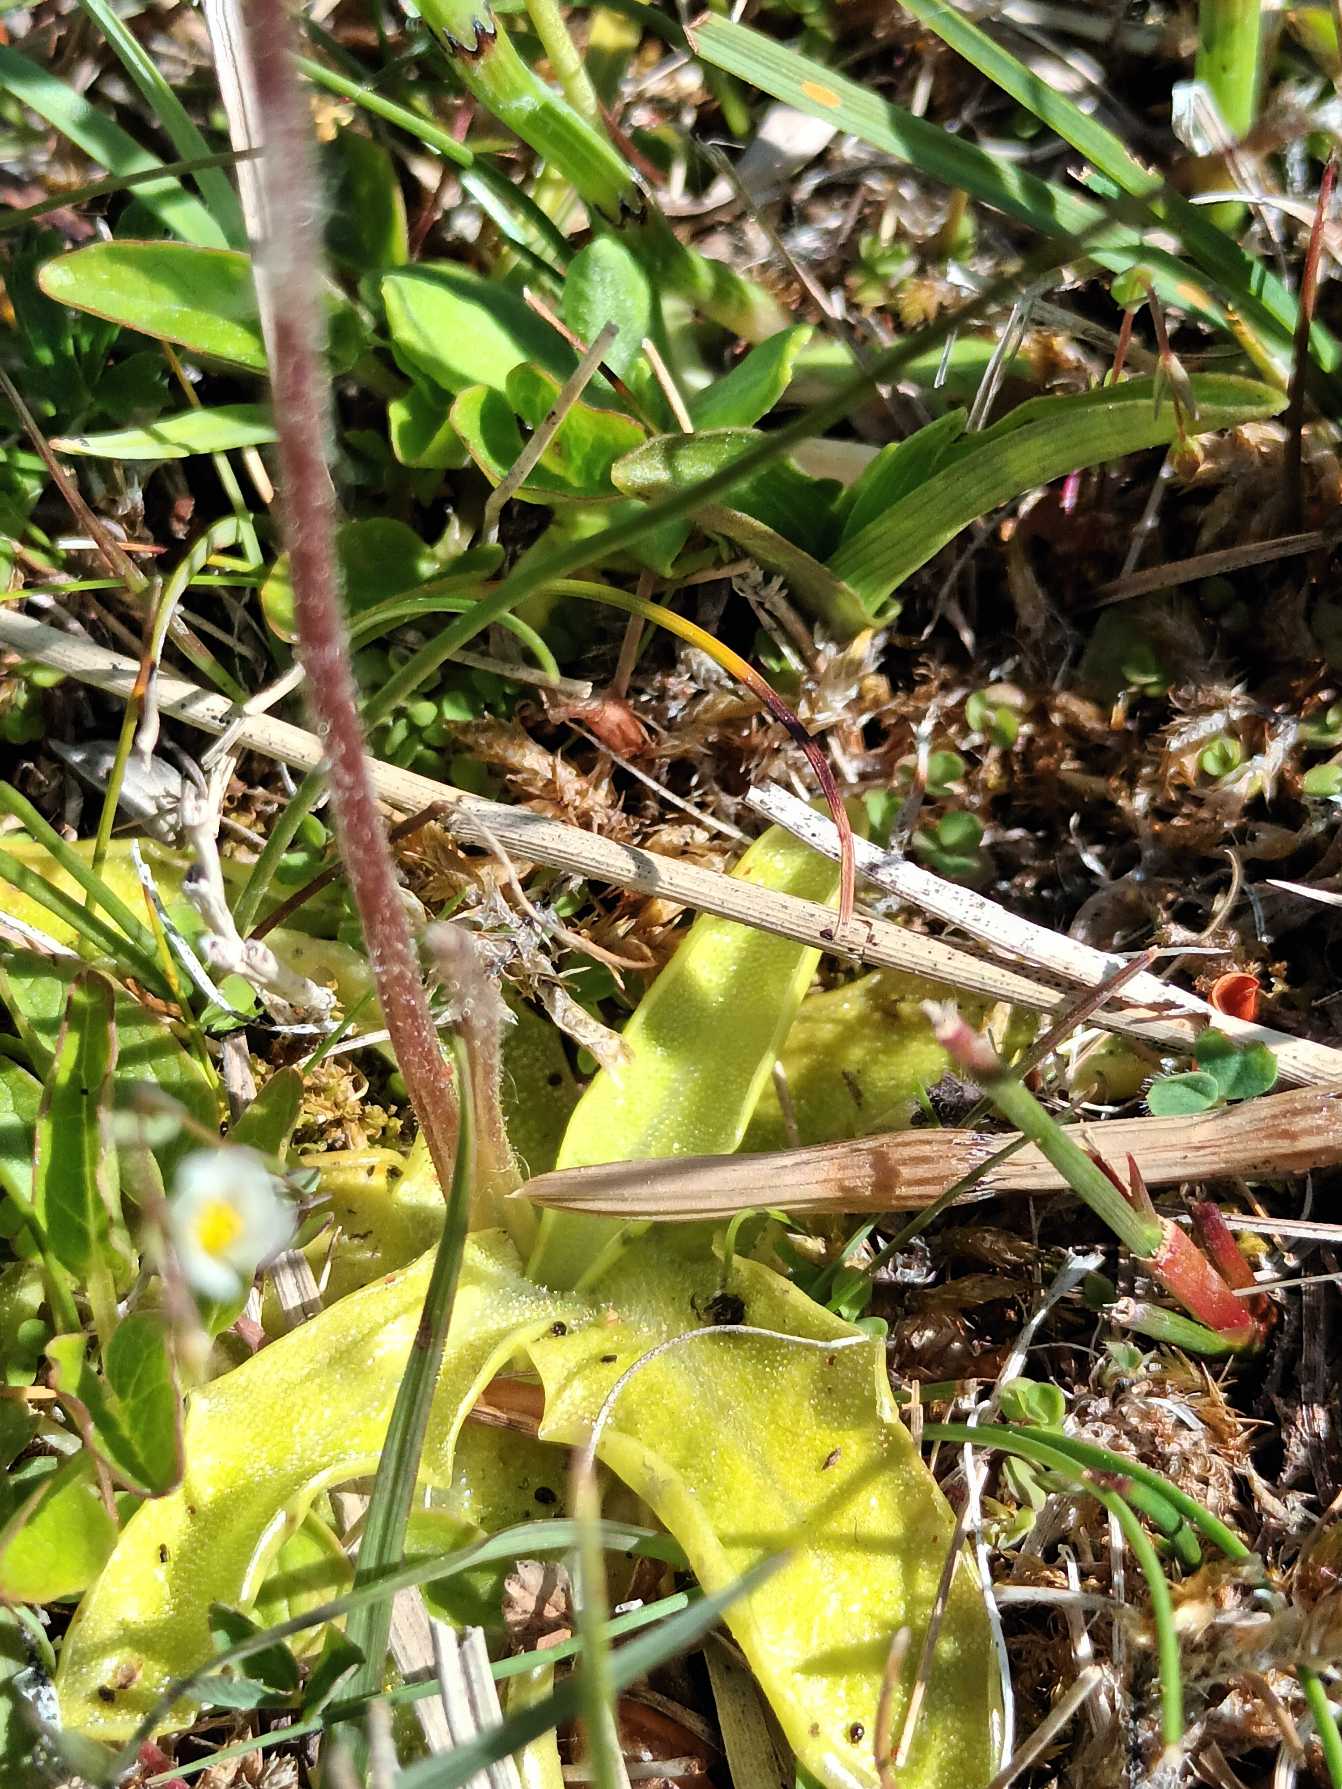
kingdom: Plantae
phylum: Tracheophyta
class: Magnoliopsida
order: Lamiales
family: Lentibulariaceae
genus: Pinguicula
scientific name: Pinguicula vulgaris
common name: Vibefedt
